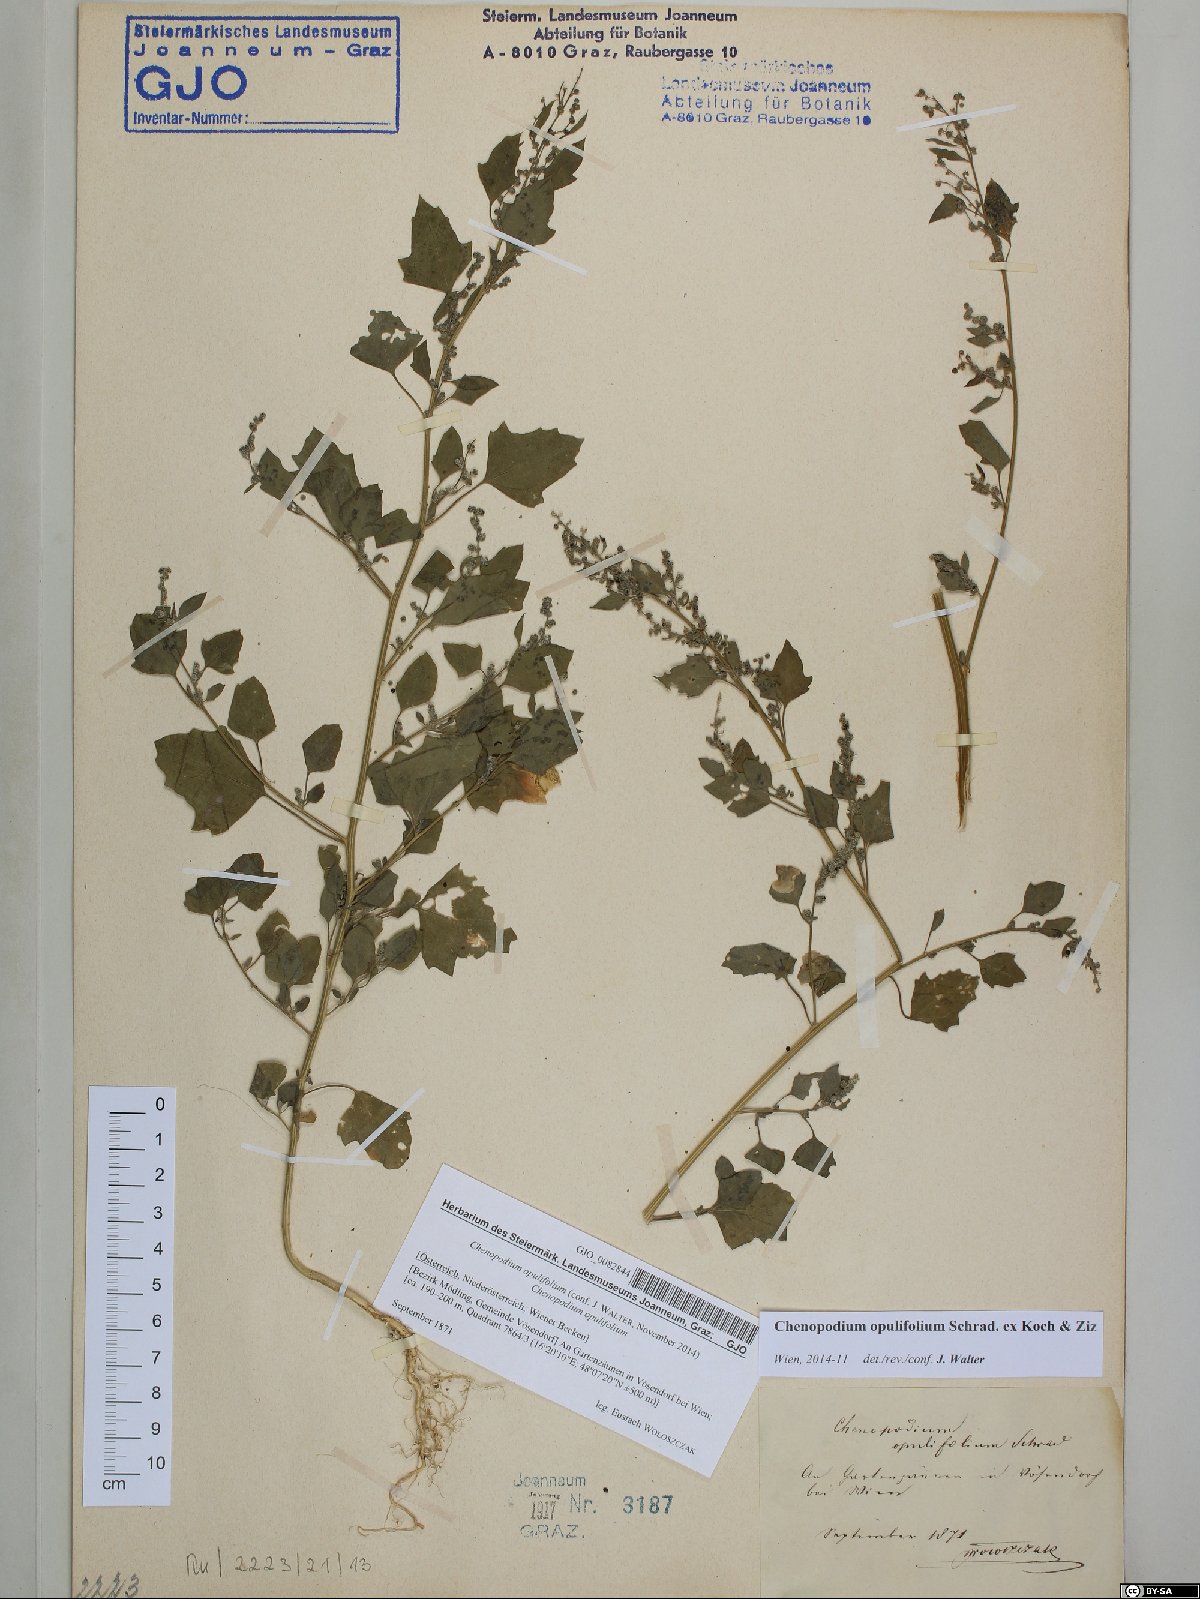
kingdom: Plantae
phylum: Tracheophyta
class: Magnoliopsida
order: Caryophyllales
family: Amaranthaceae
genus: Chenopodium
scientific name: Chenopodium opulifolium
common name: Grey goosefoot
